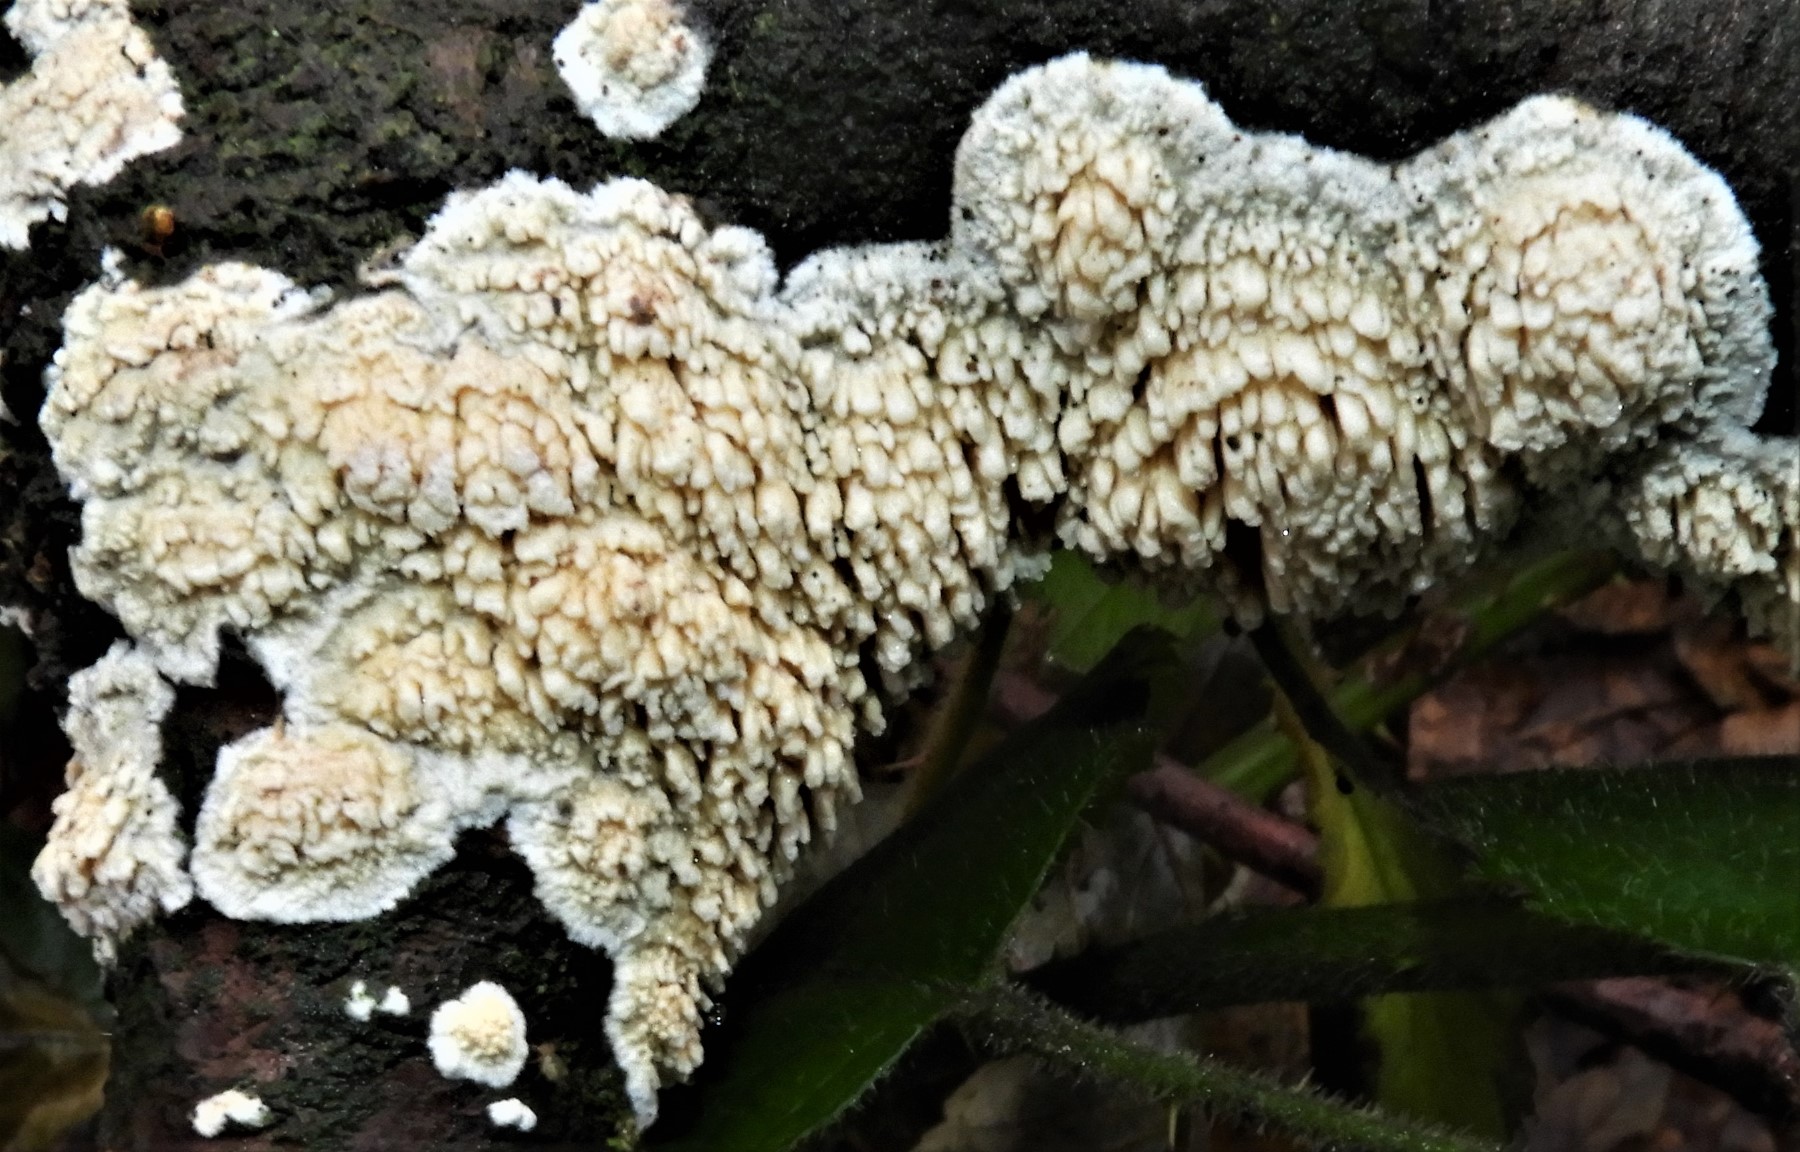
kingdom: Fungi
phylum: Basidiomycota
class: Agaricomycetes
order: Hymenochaetales
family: Schizoporaceae
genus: Xylodon
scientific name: Xylodon radula
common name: grovtandet kalkskind
